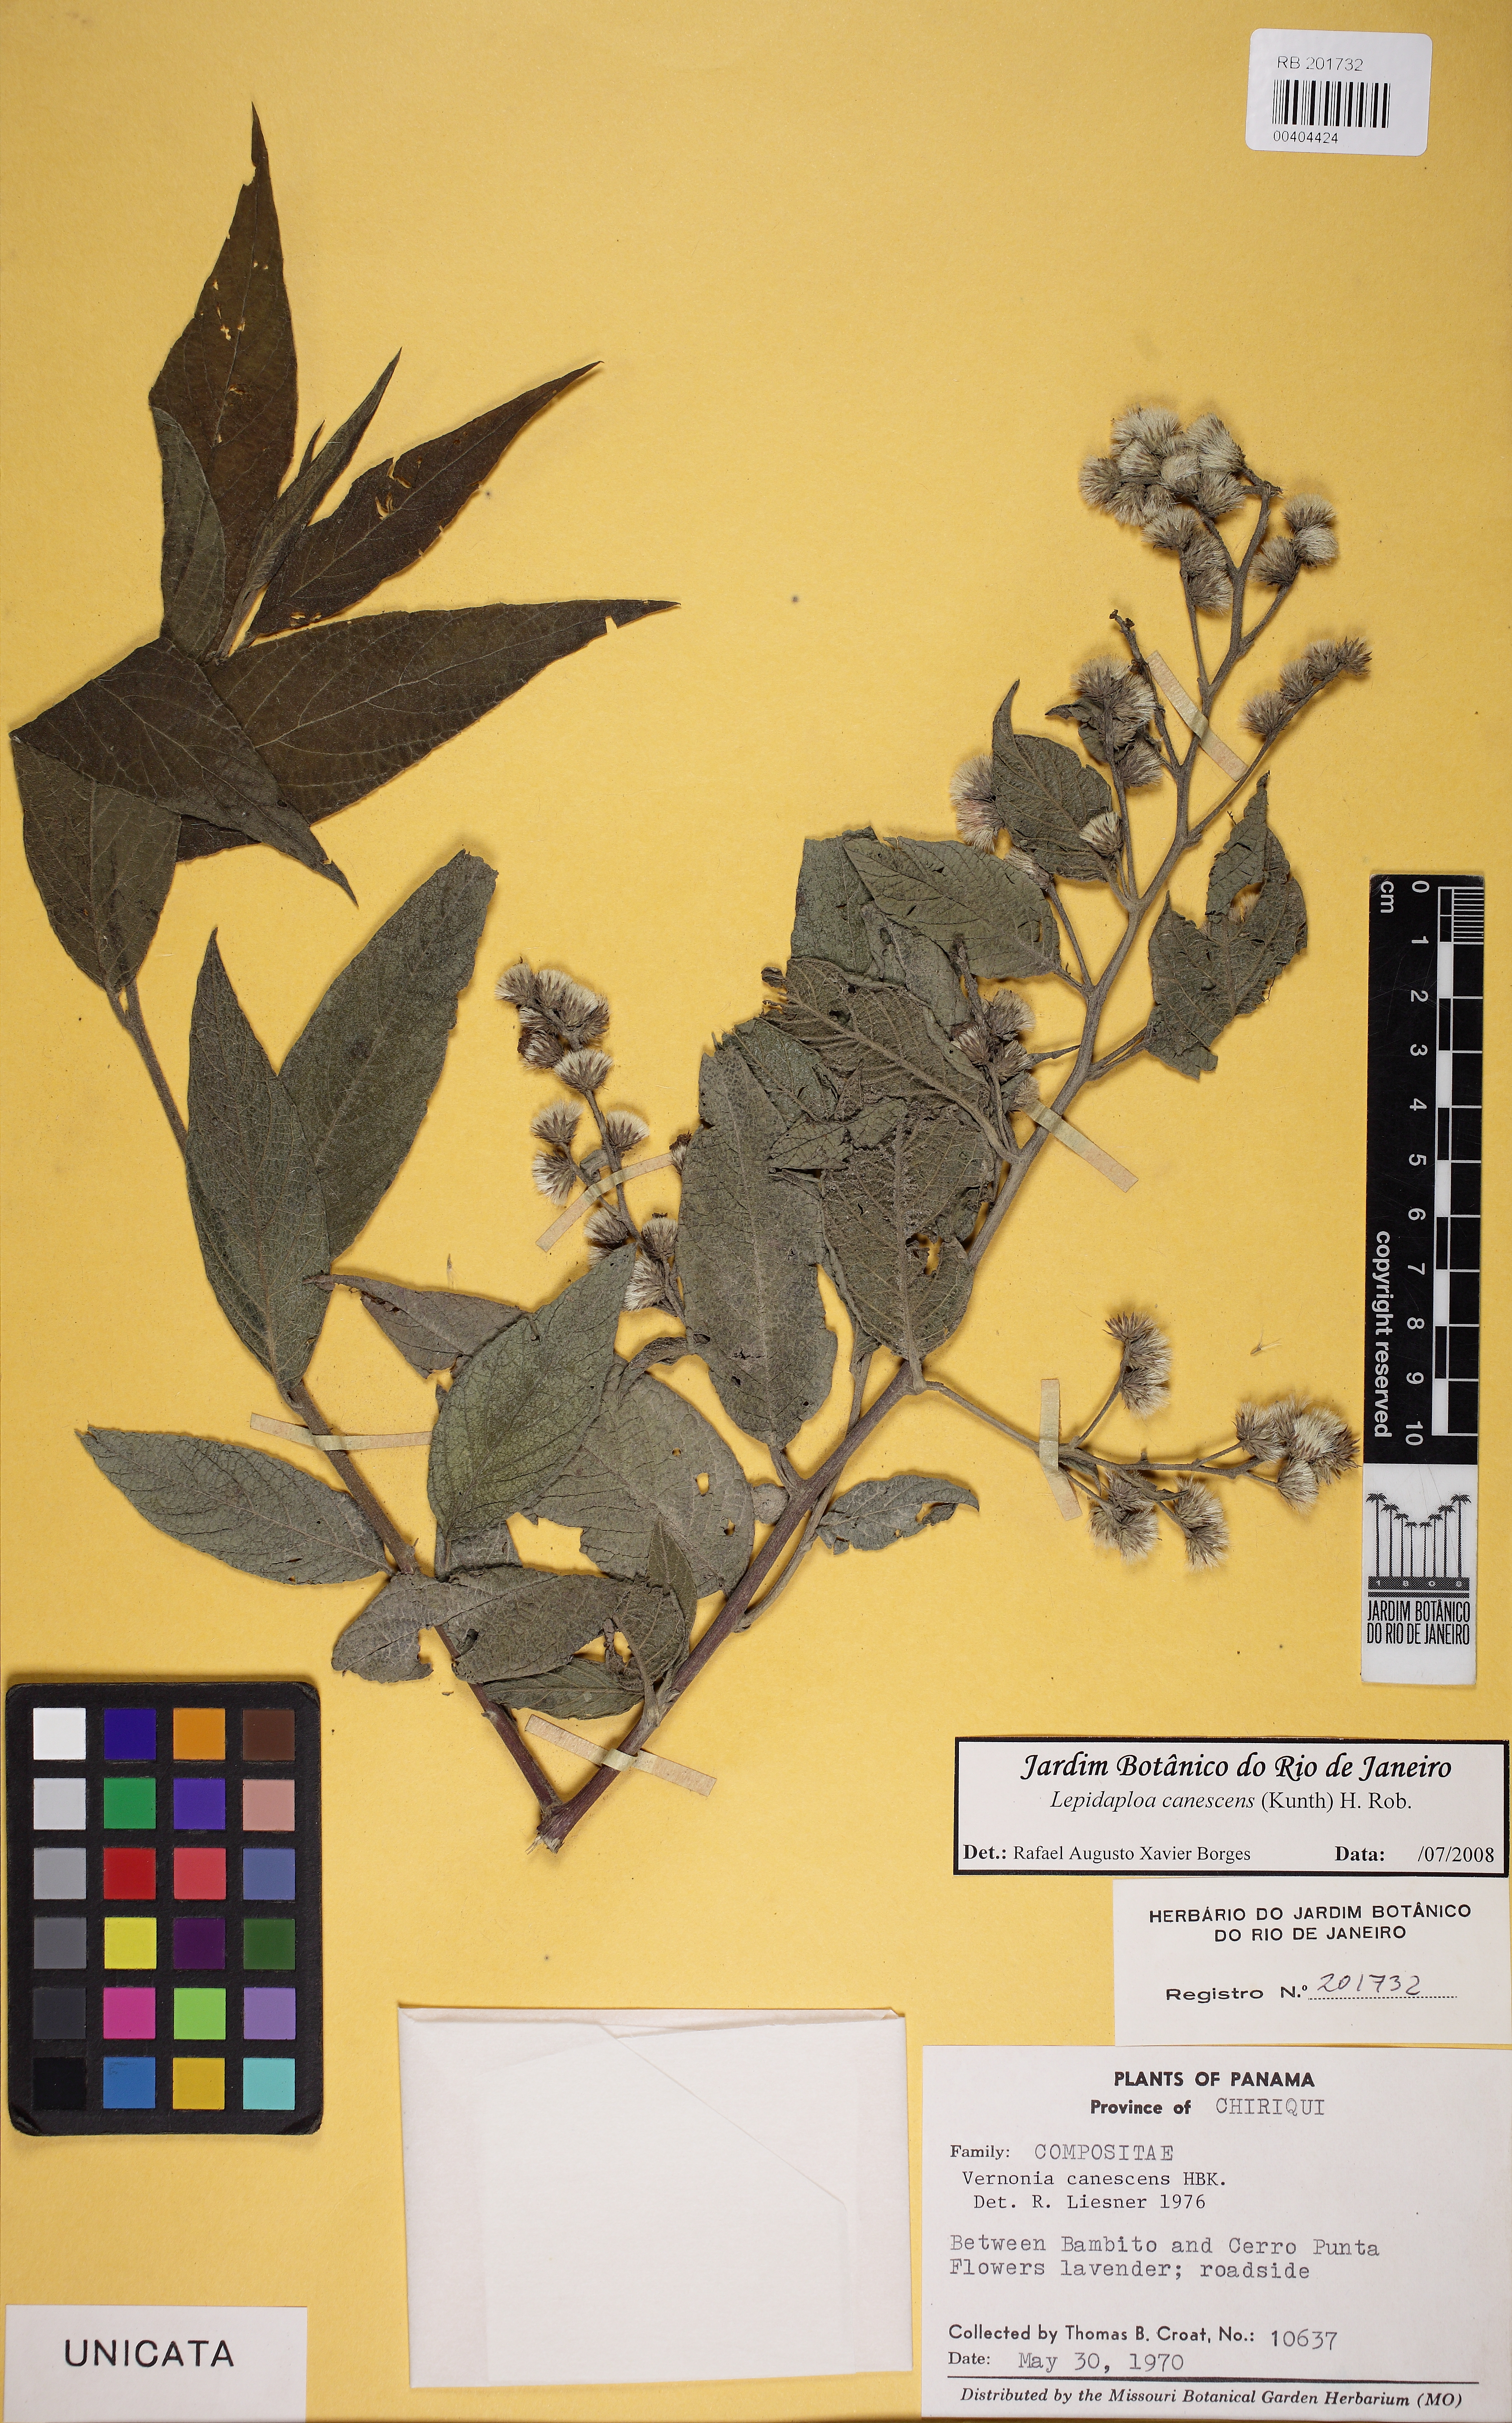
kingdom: Plantae
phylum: Tracheophyta
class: Magnoliopsida
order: Asterales
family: Asteraceae
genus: Lepidaploa
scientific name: Lepidaploa canescens
